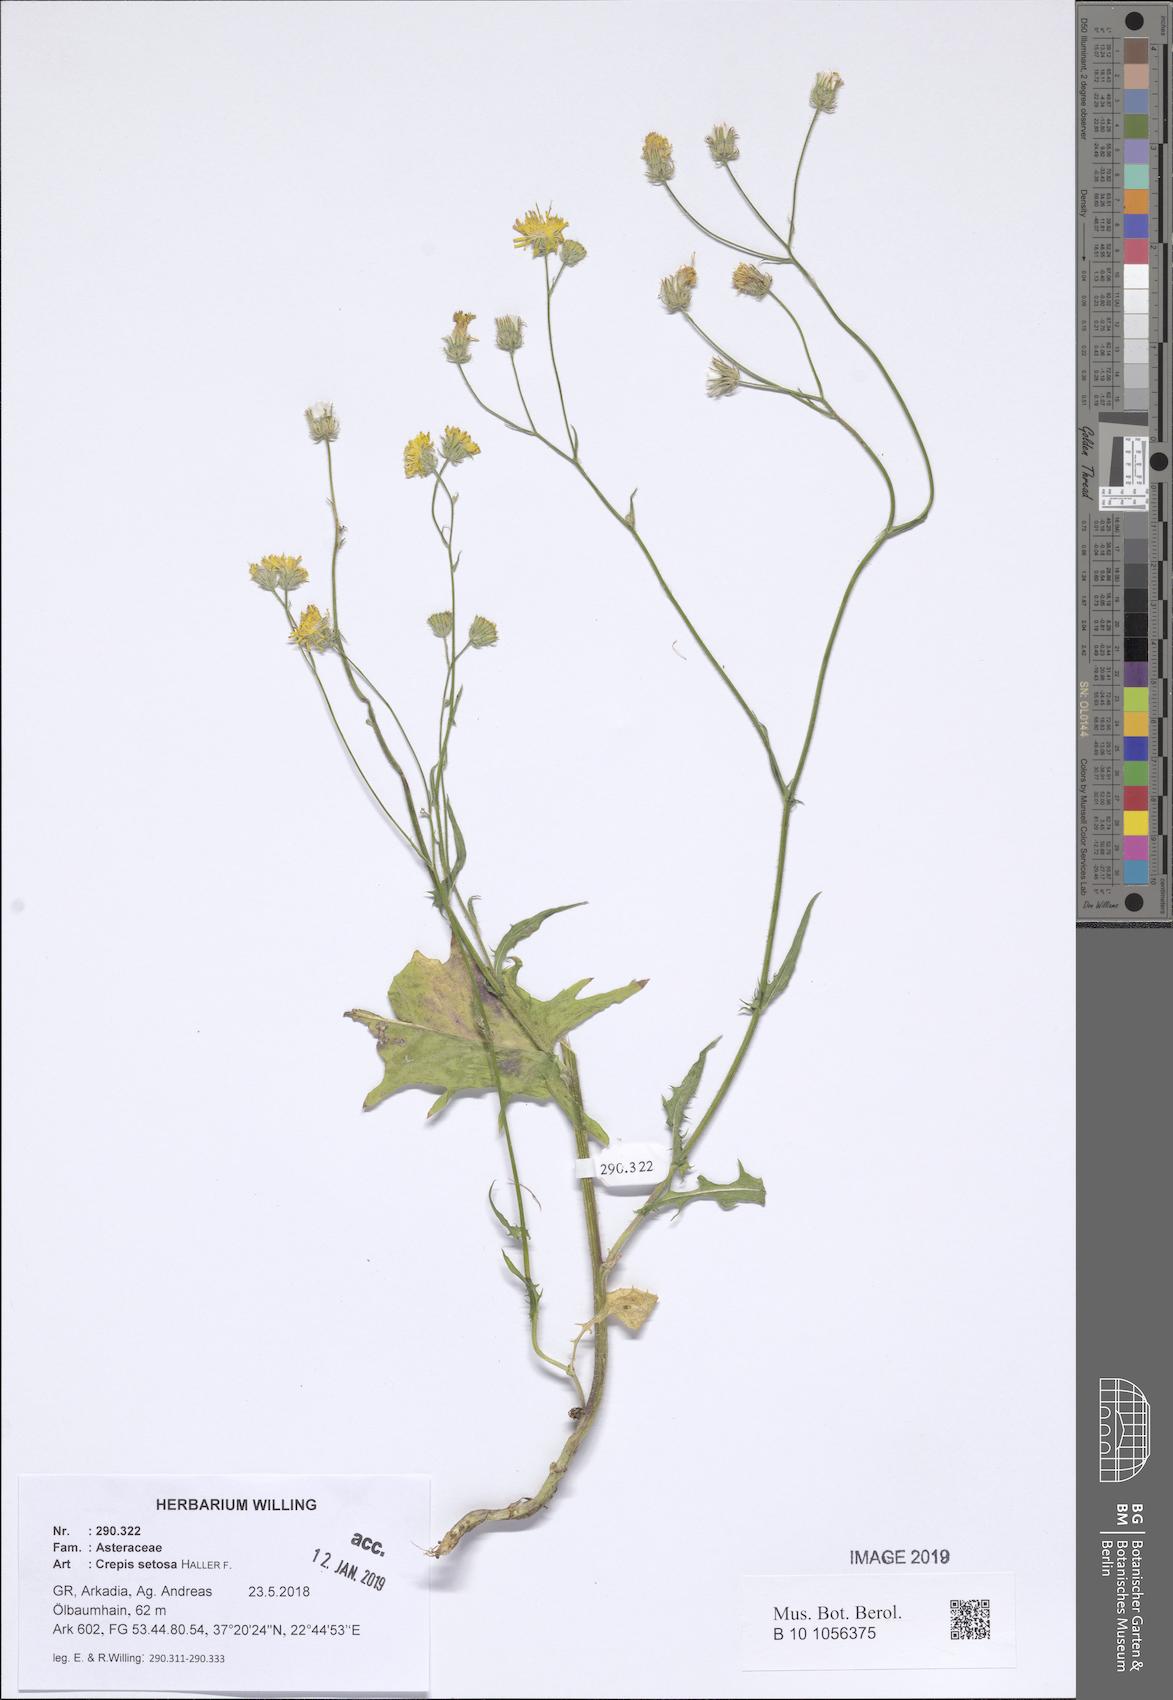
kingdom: Plantae
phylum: Tracheophyta
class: Magnoliopsida
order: Asterales
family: Asteraceae
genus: Crepis
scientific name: Crepis setosa
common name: Bristly hawk's-beard
